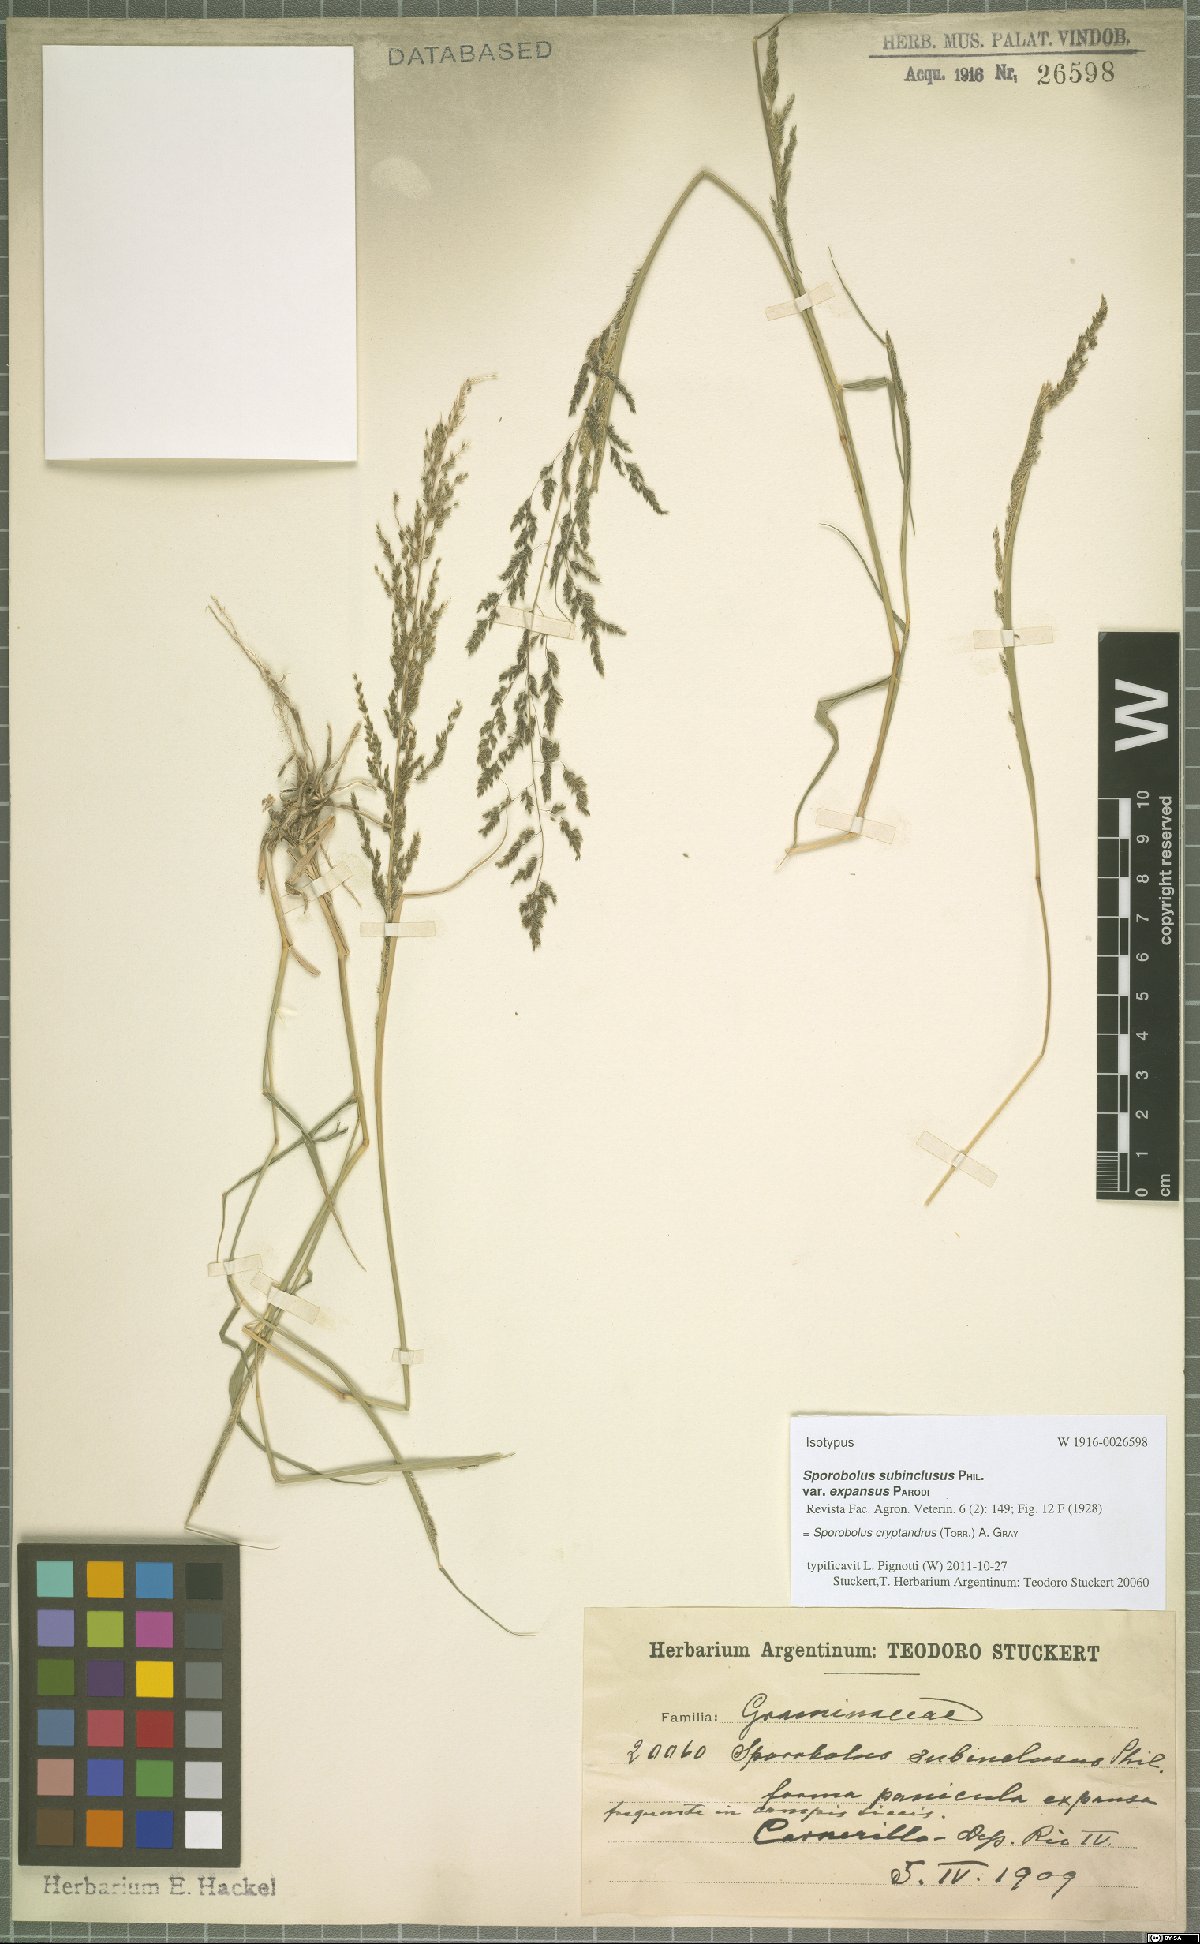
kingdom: Plantae
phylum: Tracheophyta
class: Liliopsida
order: Poales
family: Poaceae
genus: Sporobolus
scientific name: Sporobolus cryptandrus
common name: Sand dropseed
